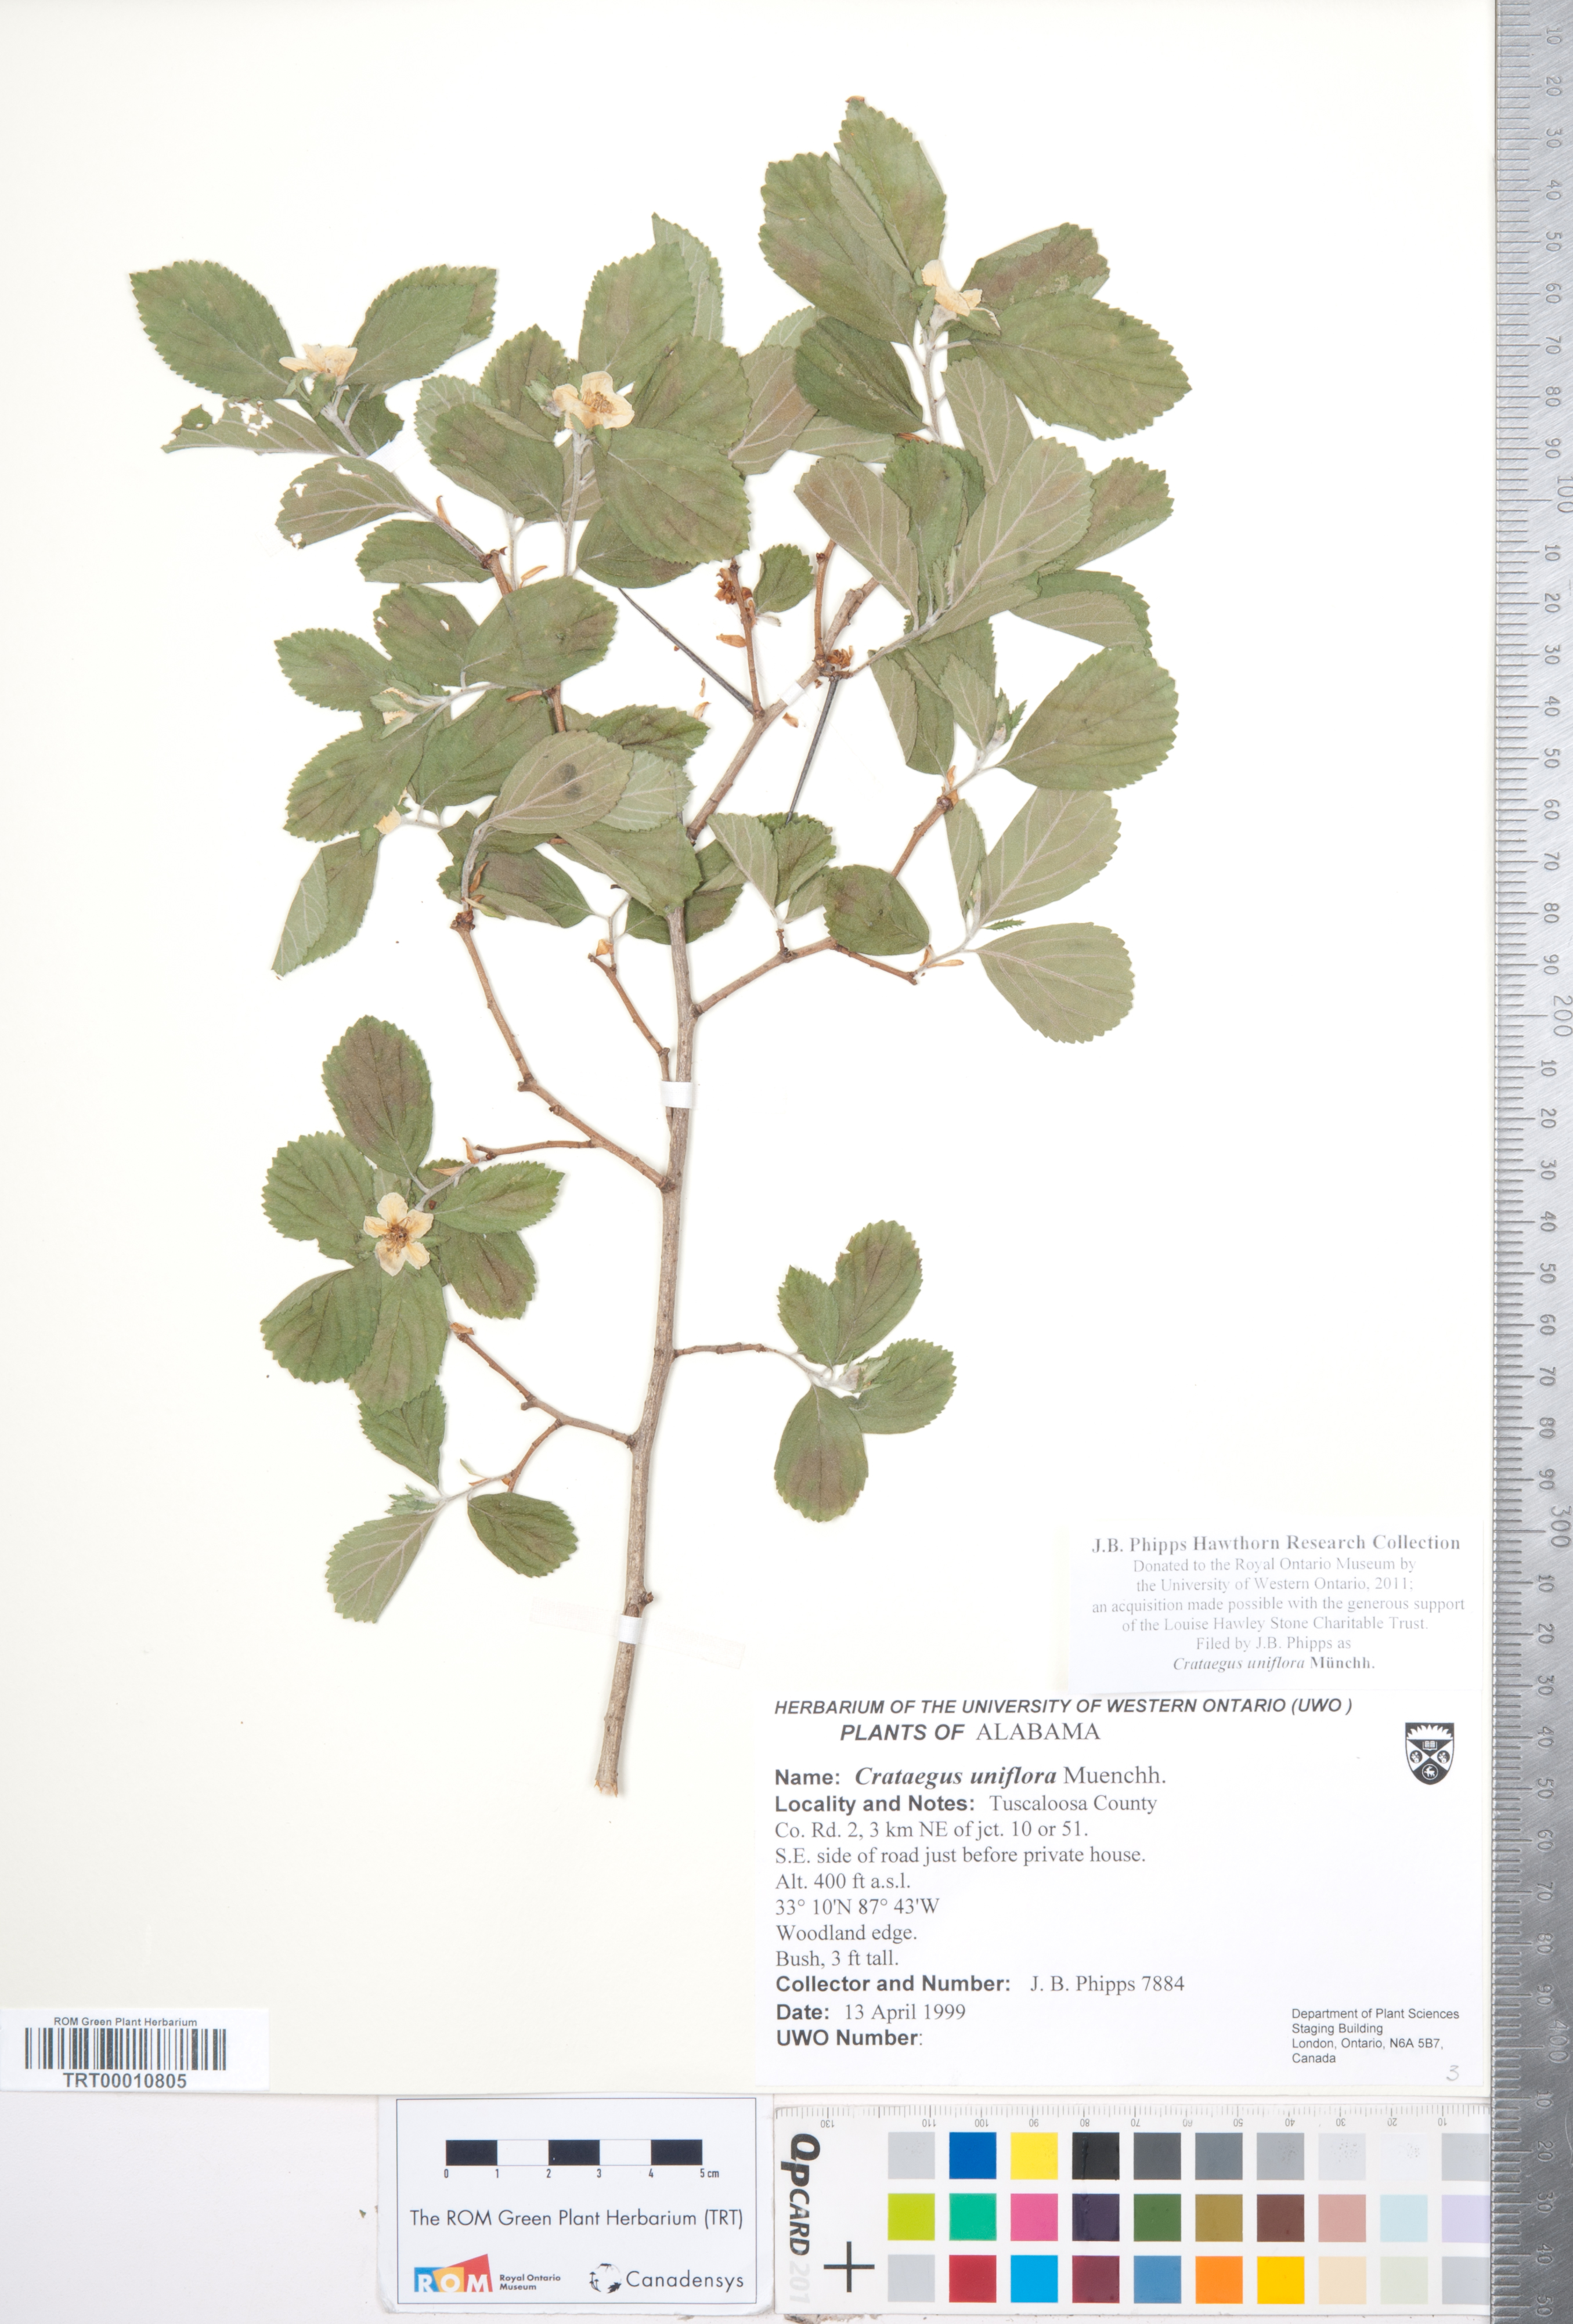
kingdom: Plantae
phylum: Tracheophyta
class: Magnoliopsida
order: Rosales
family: Rosaceae
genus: Crataegus
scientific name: Crataegus uniflora
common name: One-flower hawthorn
